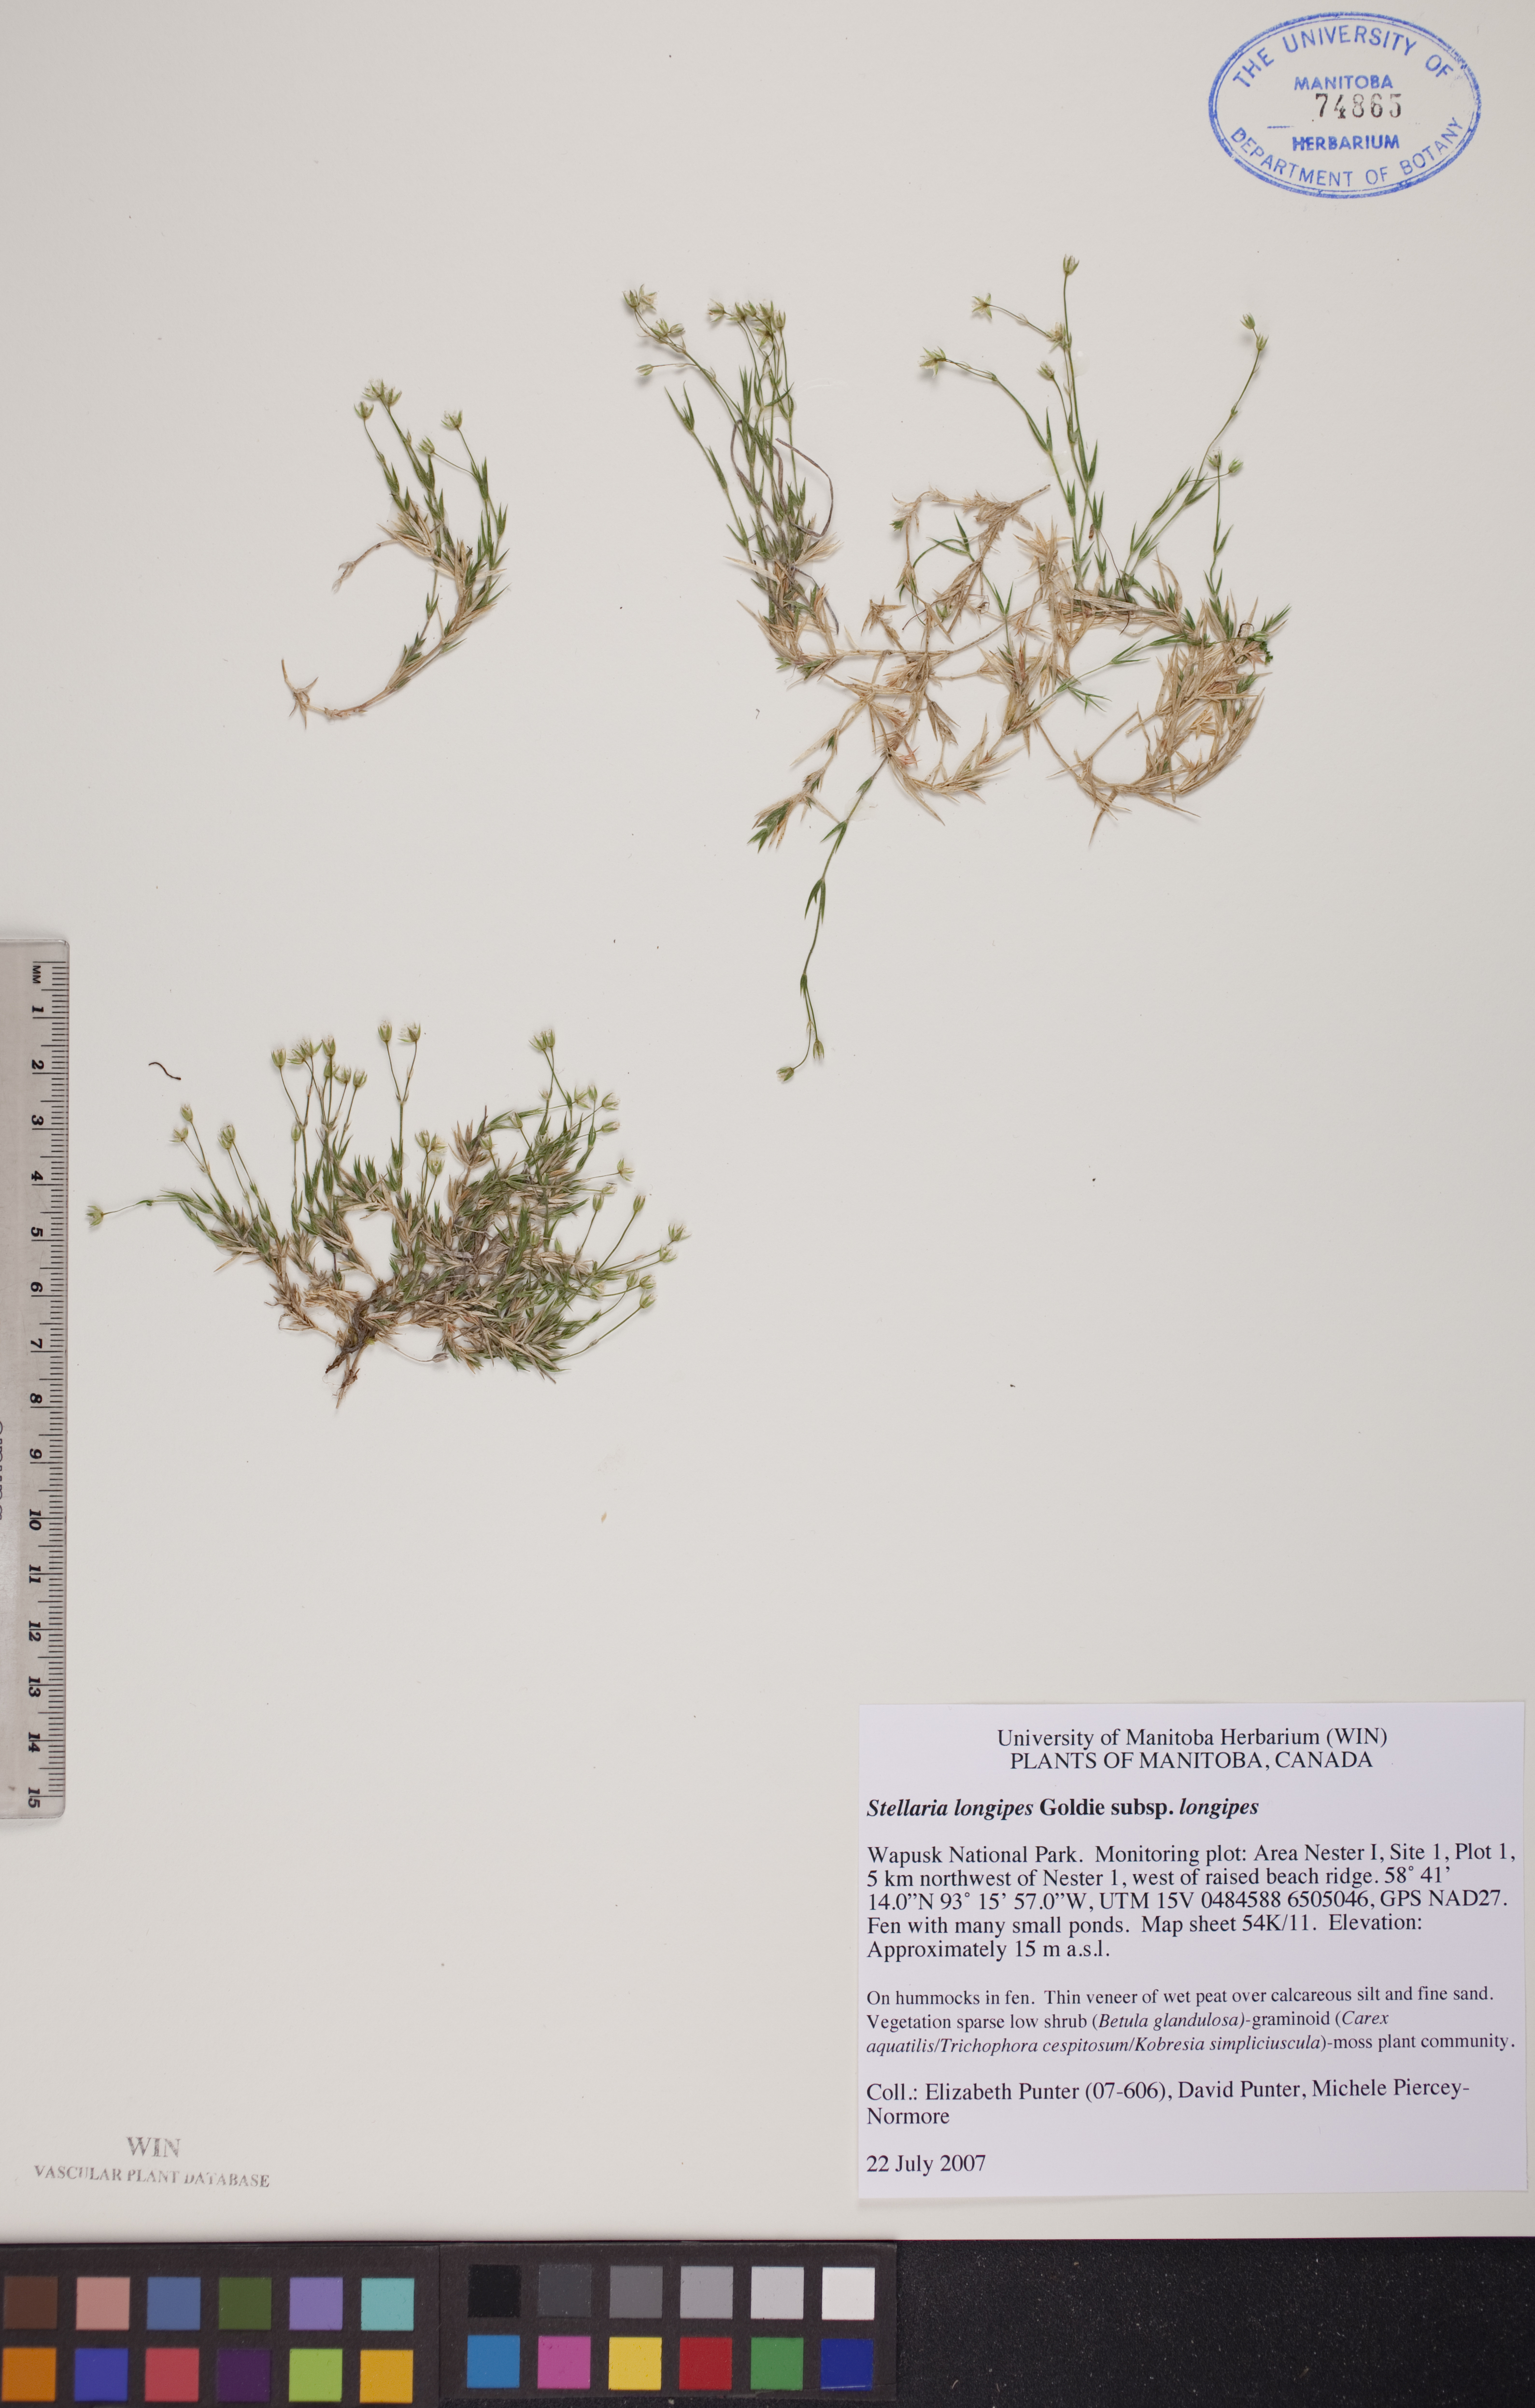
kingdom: Plantae
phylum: Tracheophyta
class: Magnoliopsida
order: Caryophyllales
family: Caryophyllaceae
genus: Stellaria
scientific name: Stellaria longipes
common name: Goldie's starwort
